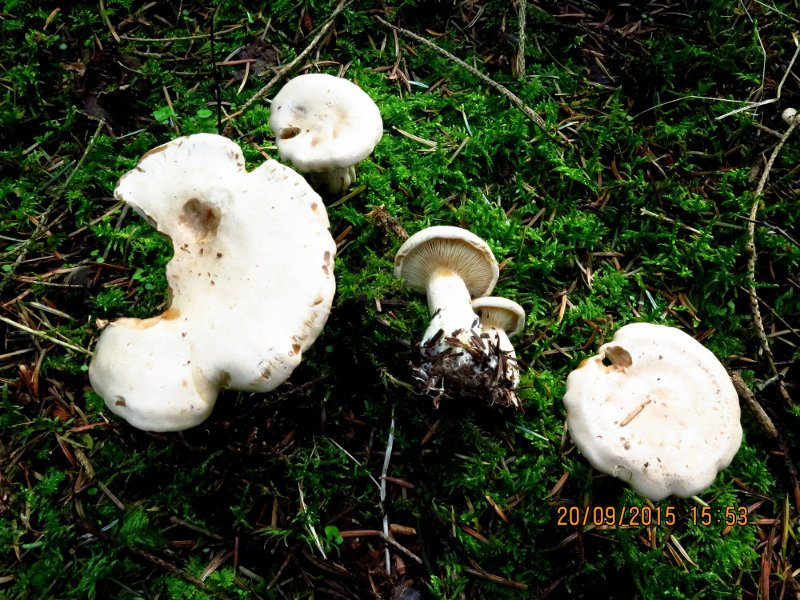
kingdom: Fungi
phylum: Basidiomycota
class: Agaricomycetes
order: Agaricales
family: Pseudoclitocybaceae
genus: Clitopaxillus
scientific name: Clitopaxillus fibulatus
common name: bestøvlet tragthat
